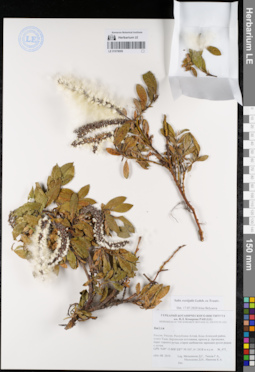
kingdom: Plantae
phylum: Tracheophyta
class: Magnoliopsida
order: Malpighiales
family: Salicaceae
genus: Salix
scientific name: Salix rectijulis
